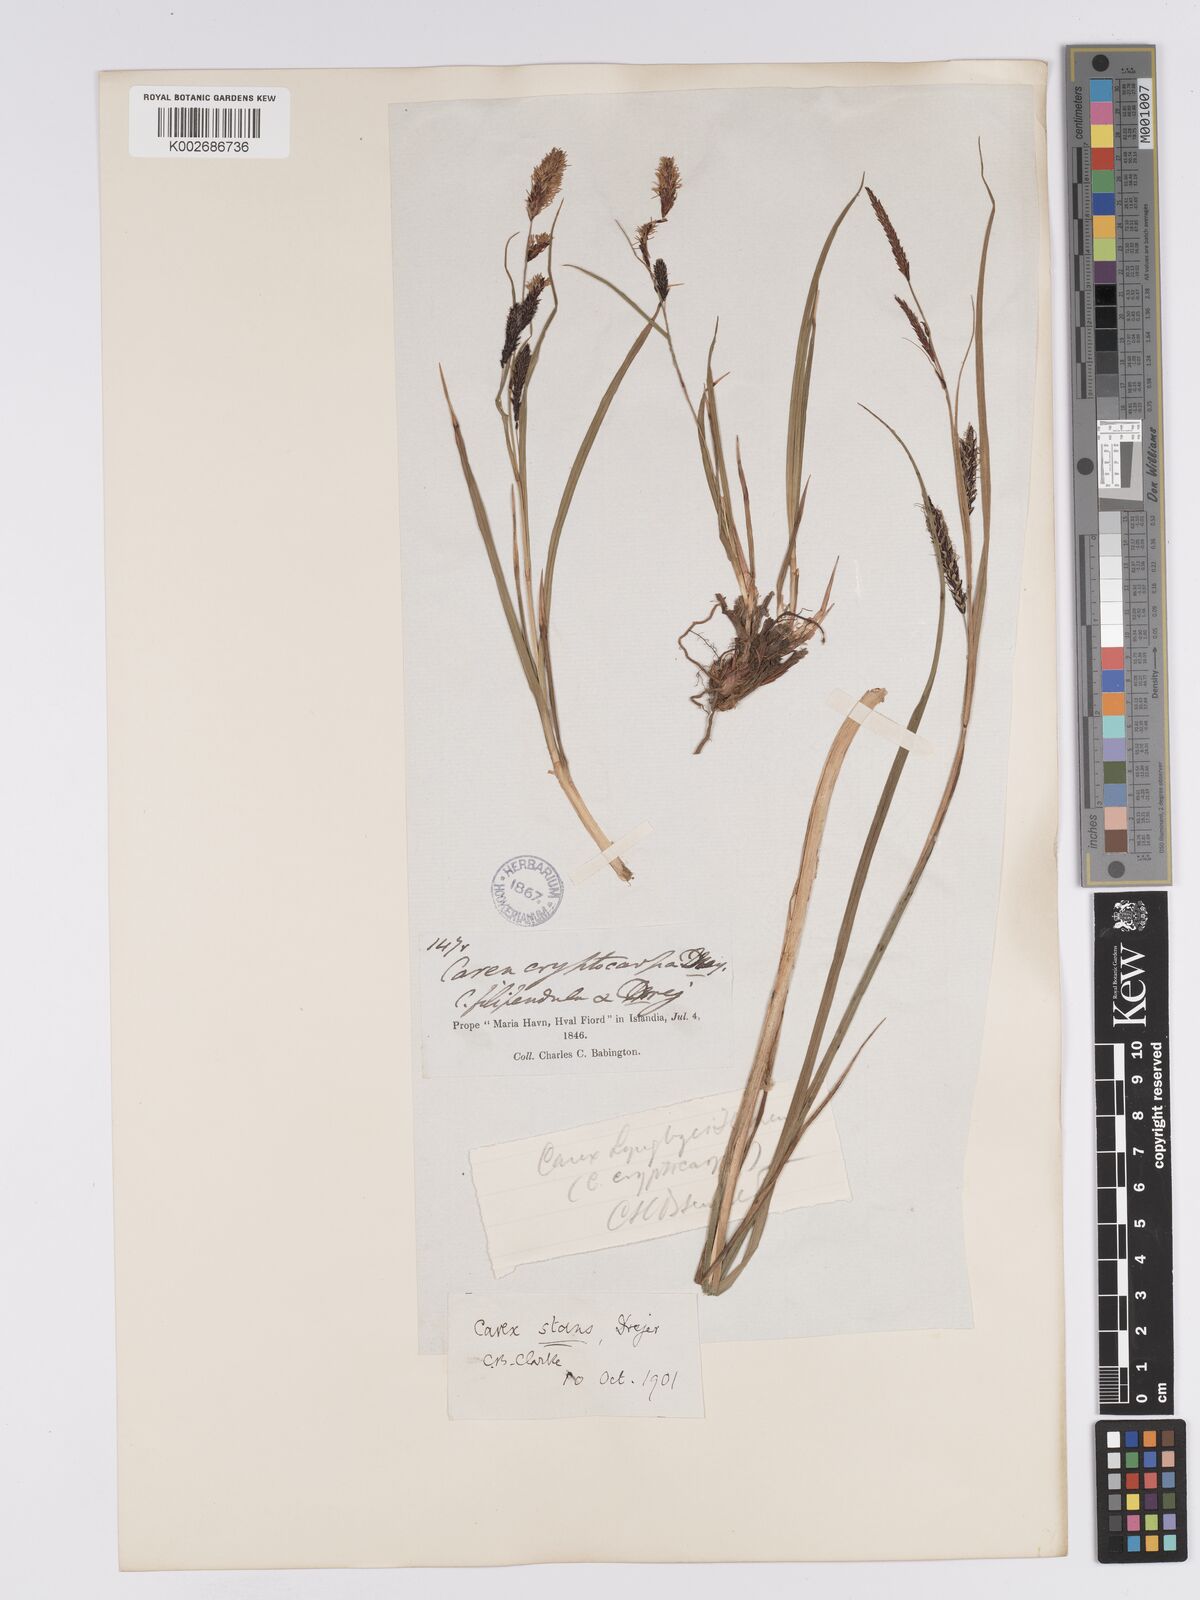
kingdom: Plantae
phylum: Tracheophyta
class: Liliopsida
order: Poales
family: Cyperaceae
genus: Carex
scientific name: Carex aquatilis
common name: Water sedge
